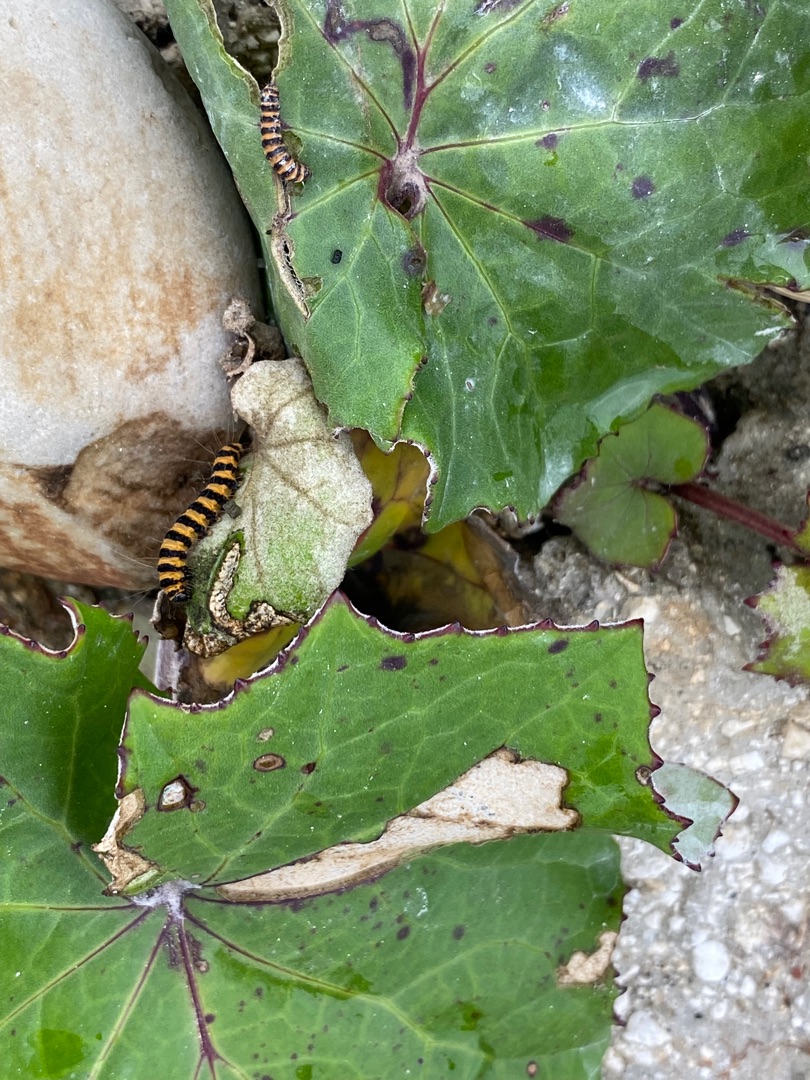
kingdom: Animalia
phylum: Arthropoda
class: Insecta
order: Lepidoptera
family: Erebidae
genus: Tyria
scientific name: Tyria jacobaeae
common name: Blodplet
